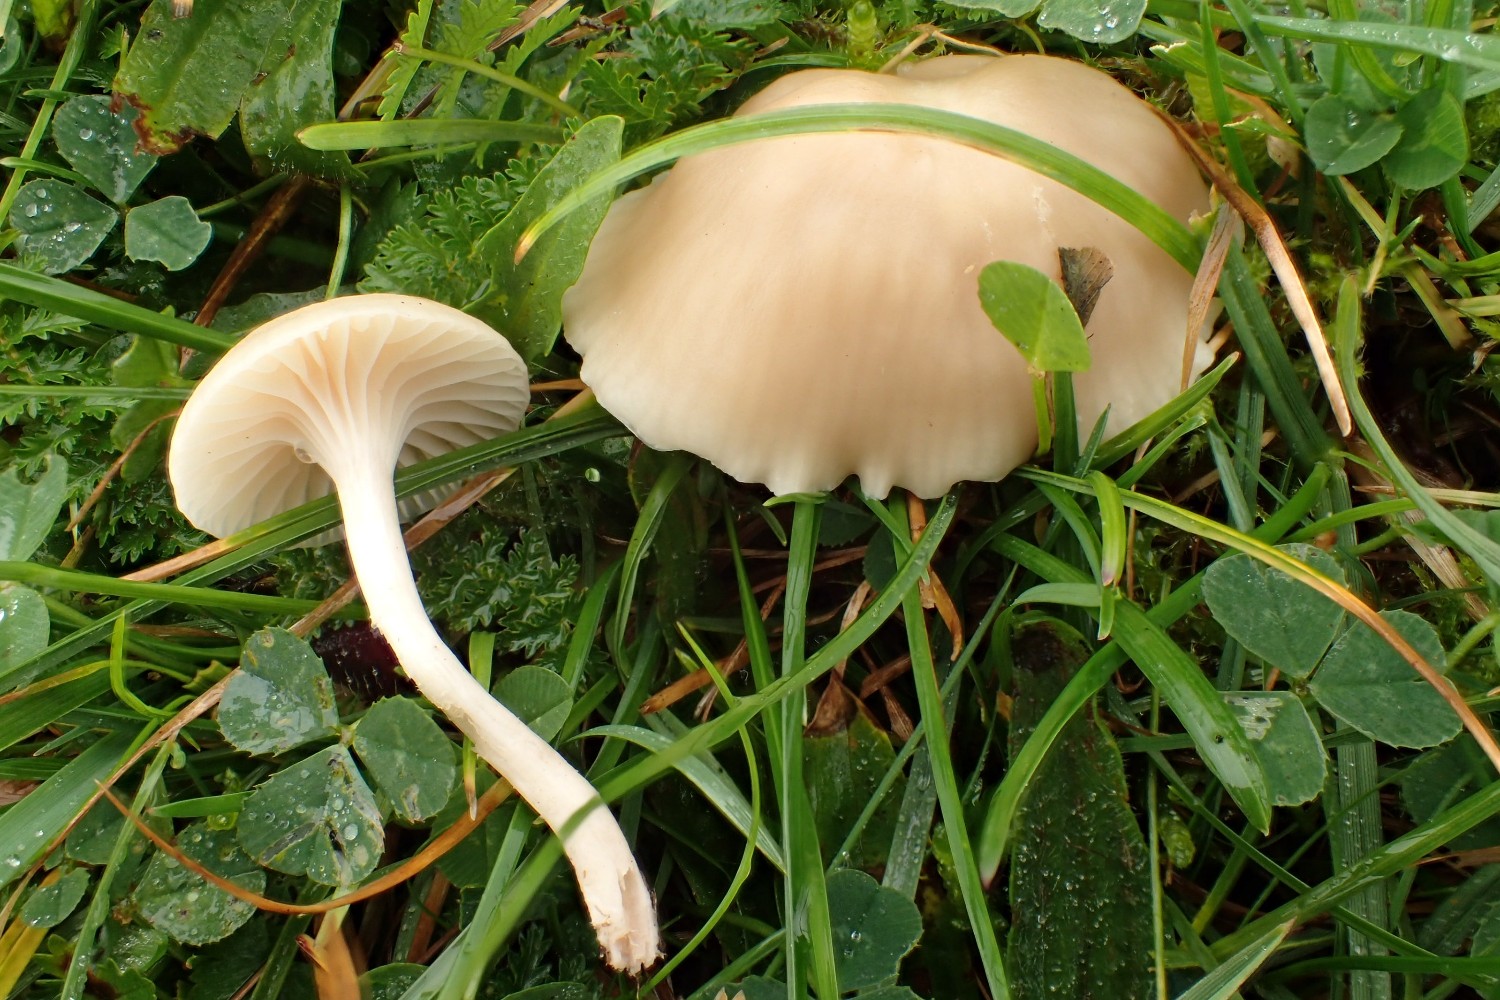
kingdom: Fungi
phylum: Basidiomycota
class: Agaricomycetes
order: Agaricales
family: Hygrophoraceae
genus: Cuphophyllus
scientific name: Cuphophyllus virgineus
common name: isabella-vokshat
